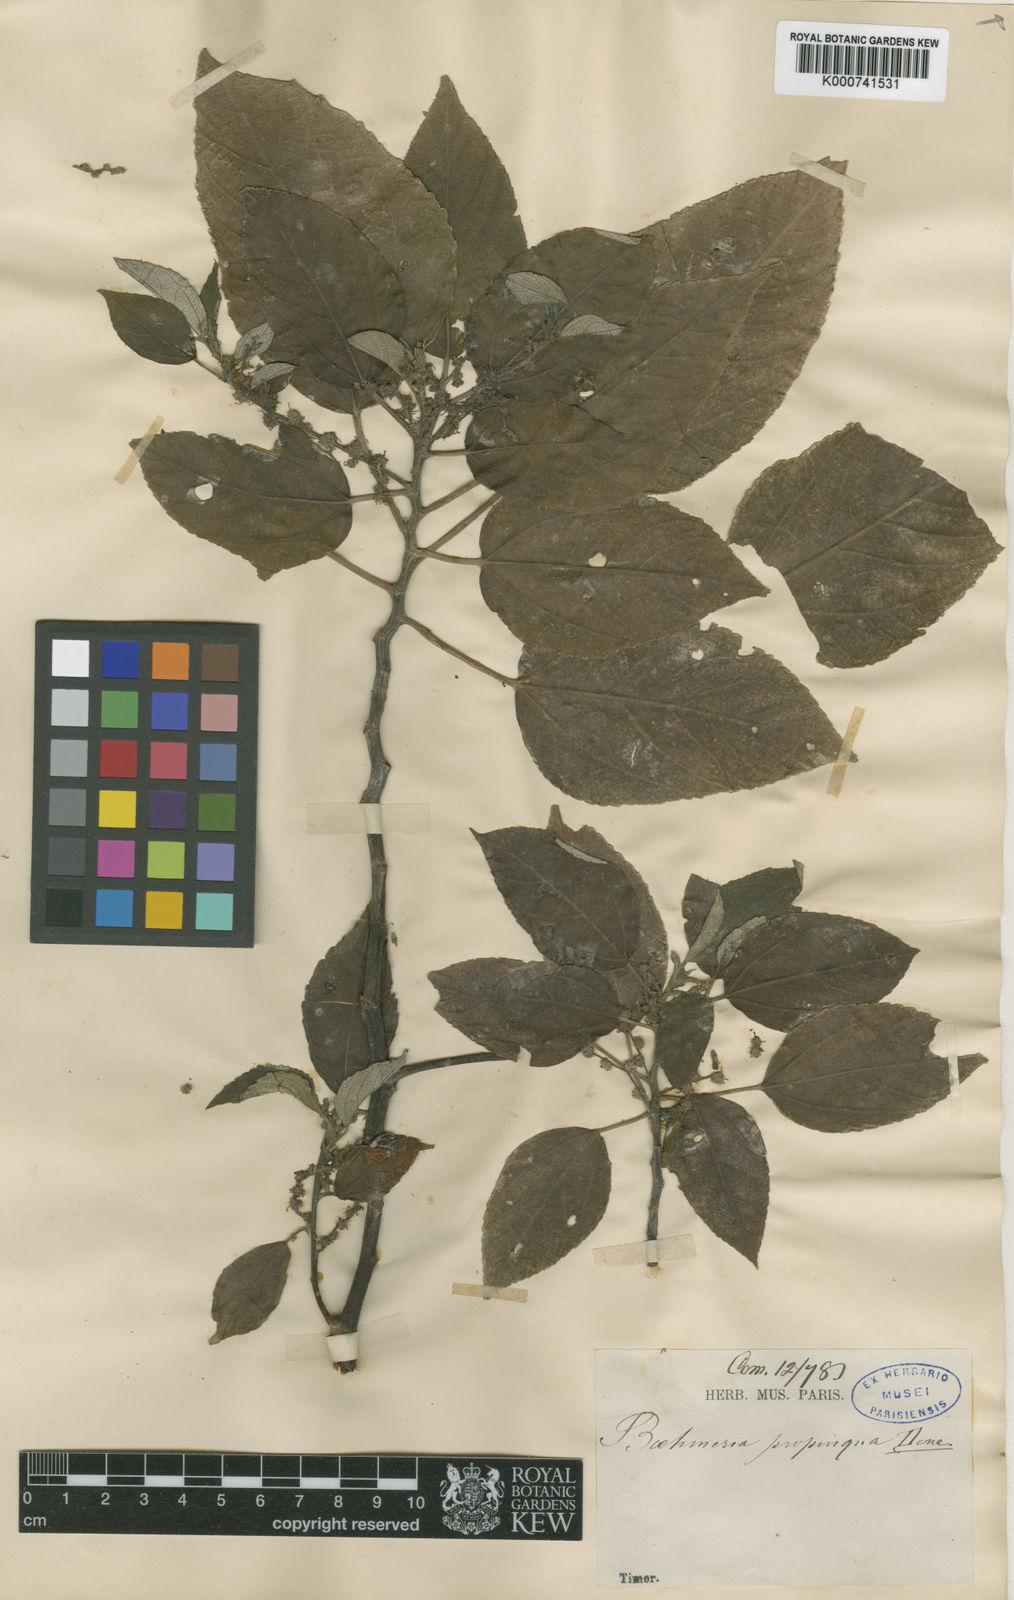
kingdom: Plantae
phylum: Tracheophyta
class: Magnoliopsida
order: Rosales
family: Urticaceae
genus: Pipturus
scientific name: Pipturus argenteus
